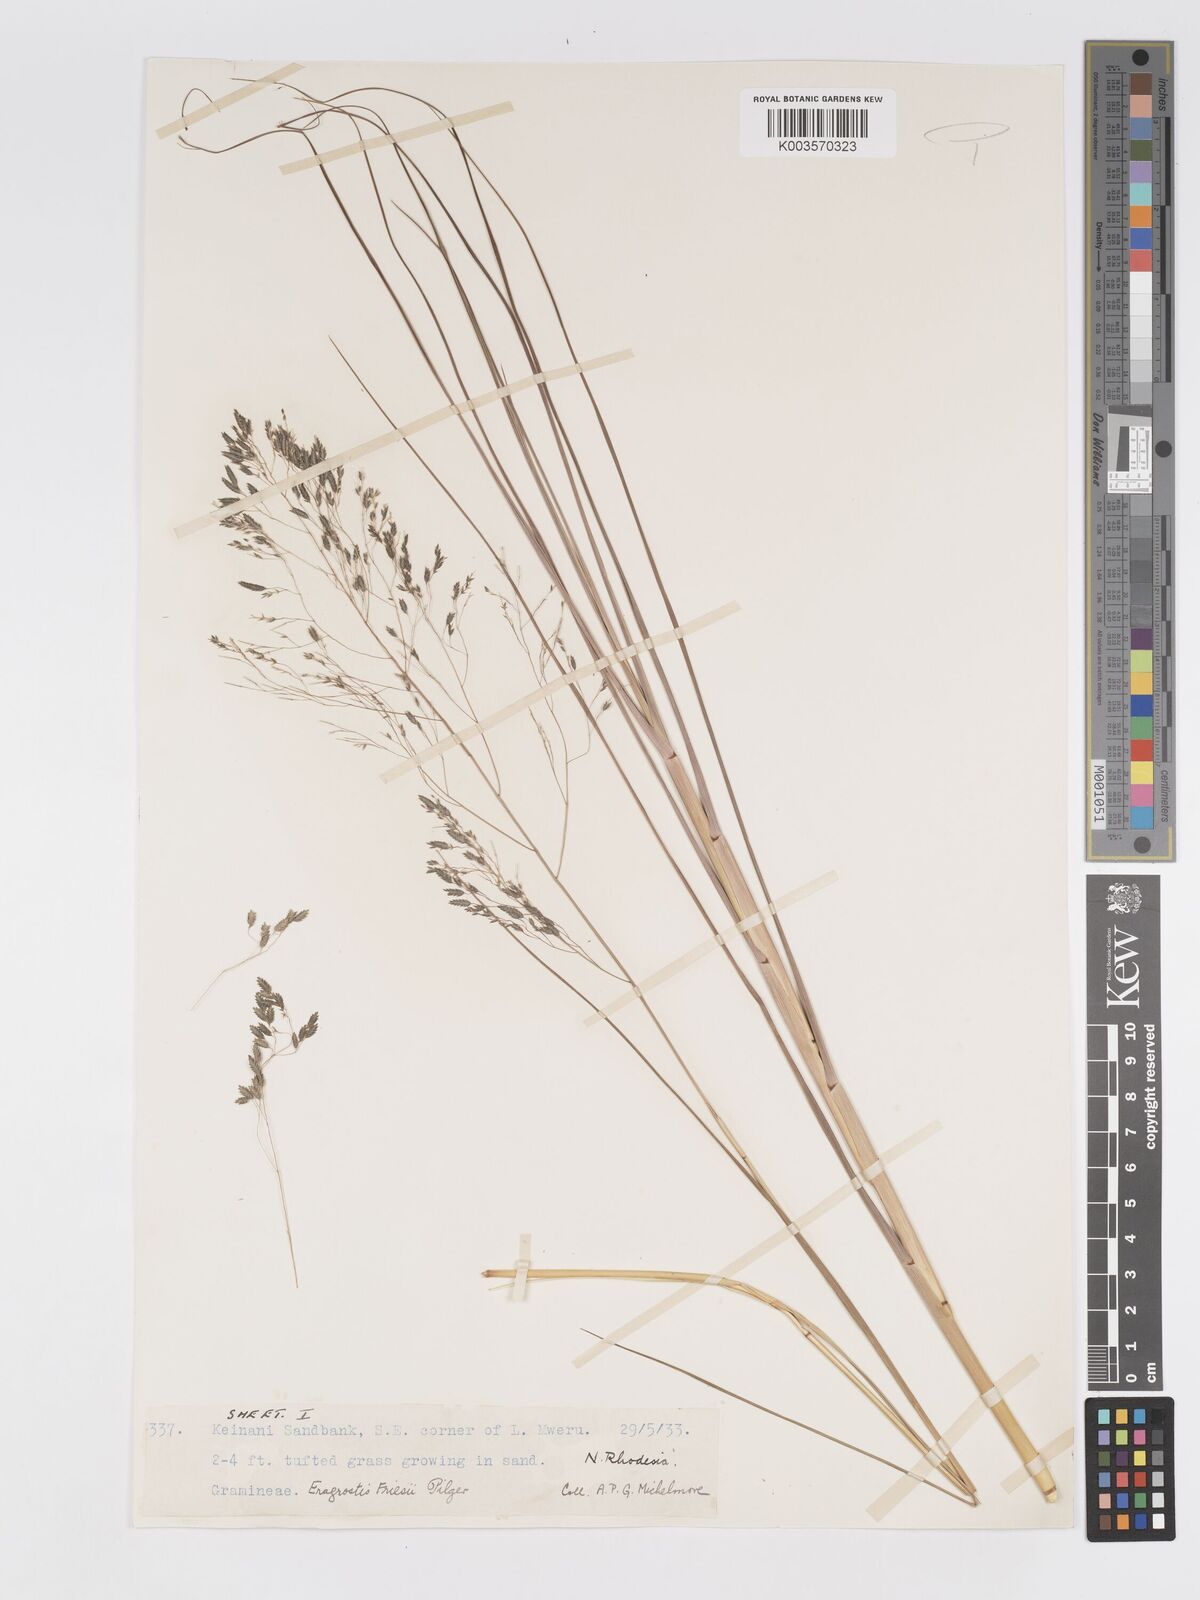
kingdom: Plantae
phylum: Tracheophyta
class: Liliopsida
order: Poales
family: Poaceae
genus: Eragrostis
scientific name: Eragrostis friesii
